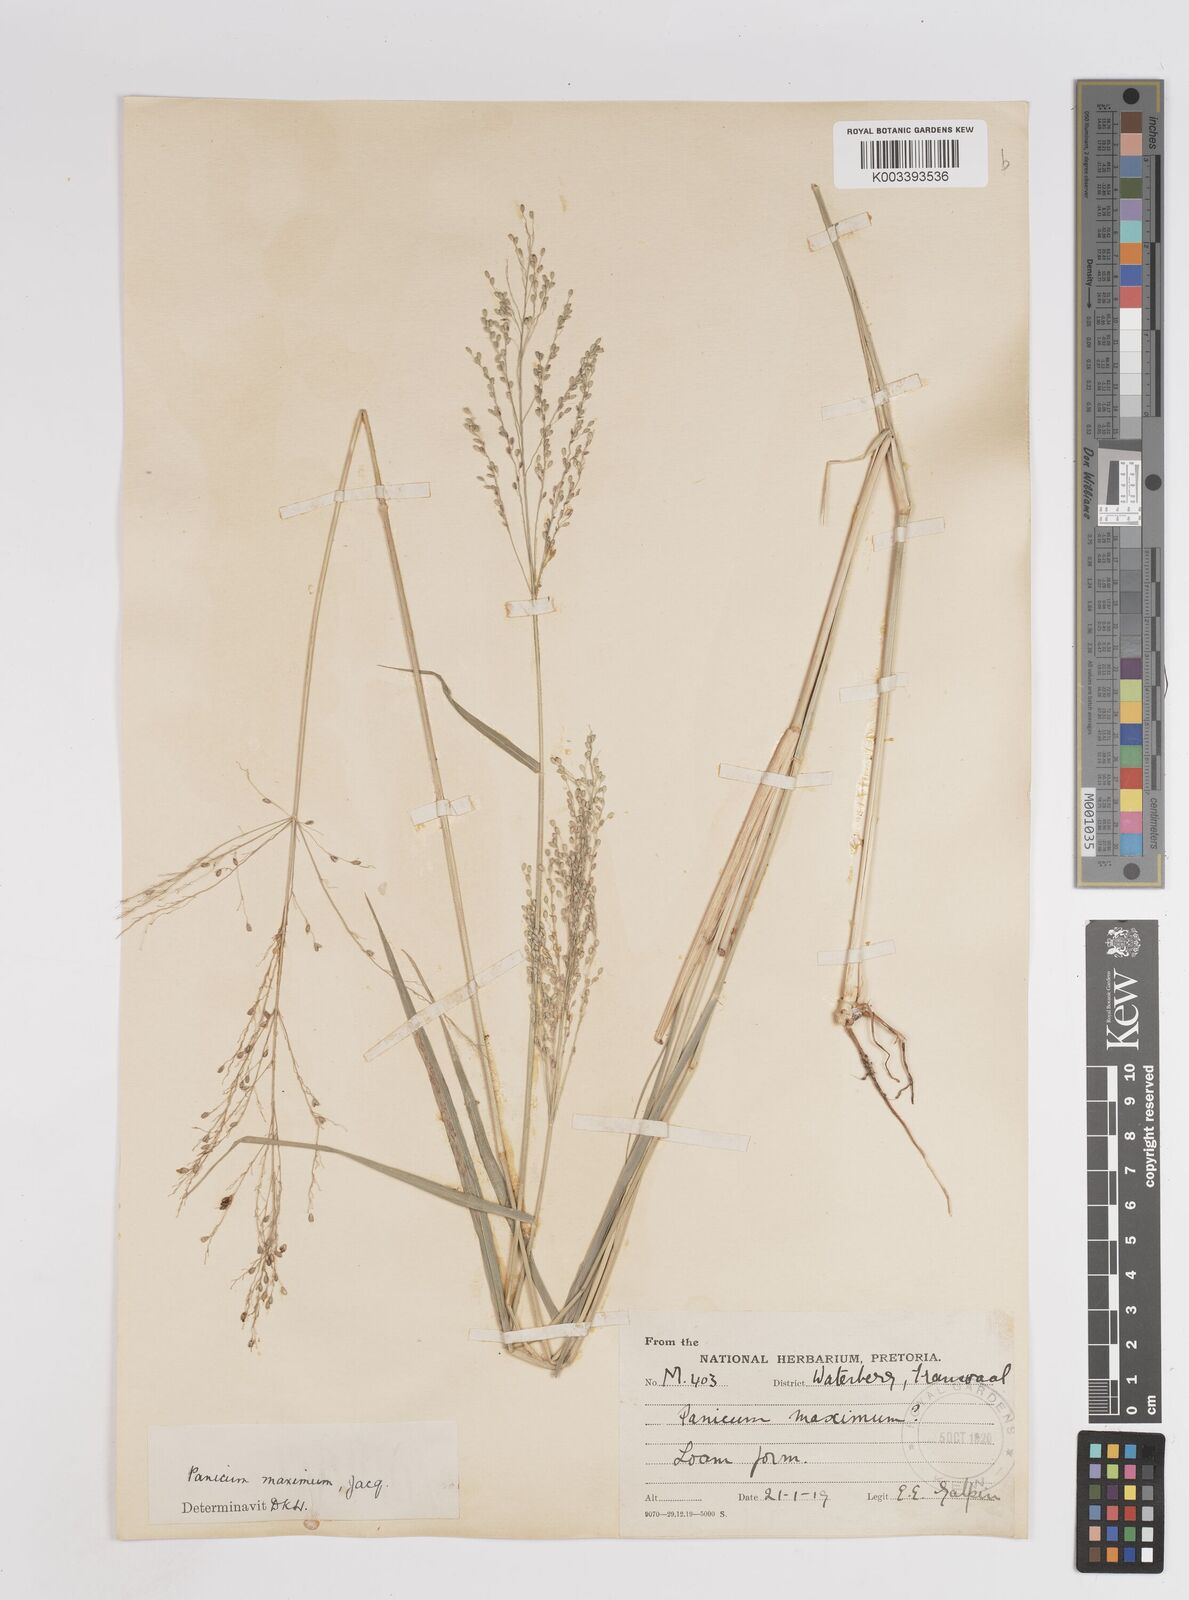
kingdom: Plantae
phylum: Tracheophyta
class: Liliopsida
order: Poales
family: Poaceae
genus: Megathyrsus
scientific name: Megathyrsus maximus
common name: Guineagrass
